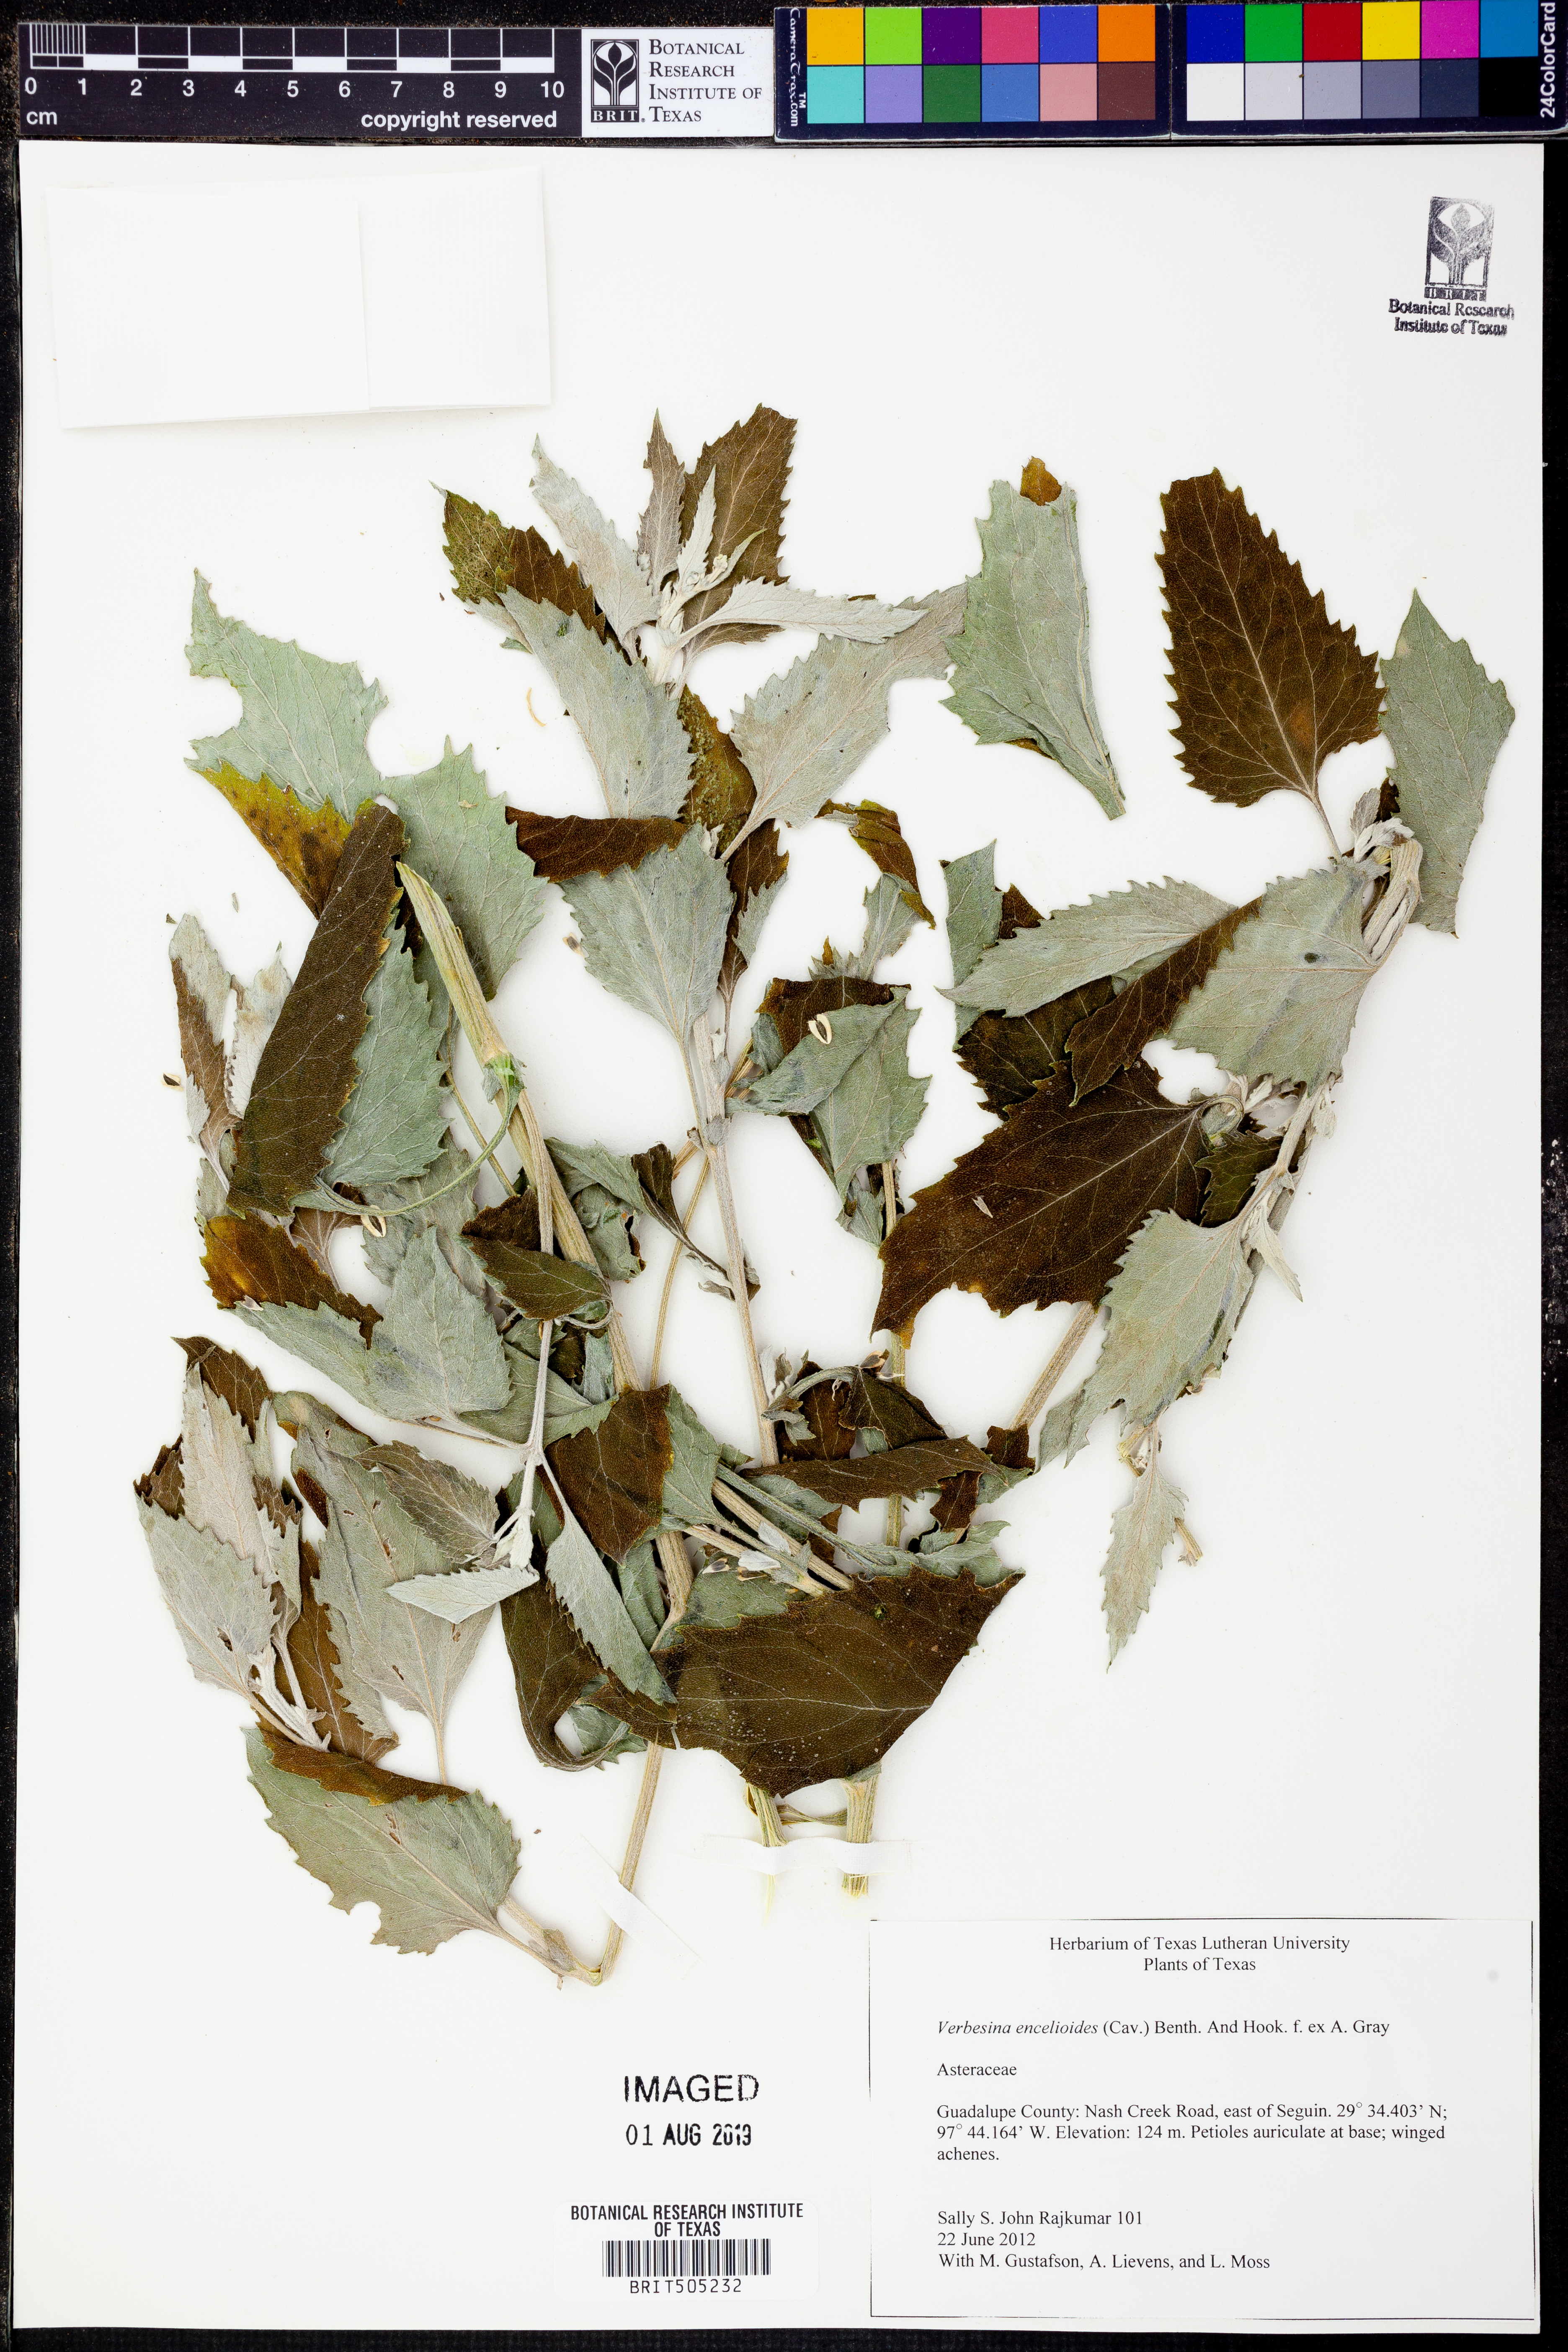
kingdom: Plantae
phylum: Tracheophyta
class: Magnoliopsida
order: Asterales
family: Asteraceae
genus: Verbesina
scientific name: Verbesina encelioides
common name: Golden crownbeard
